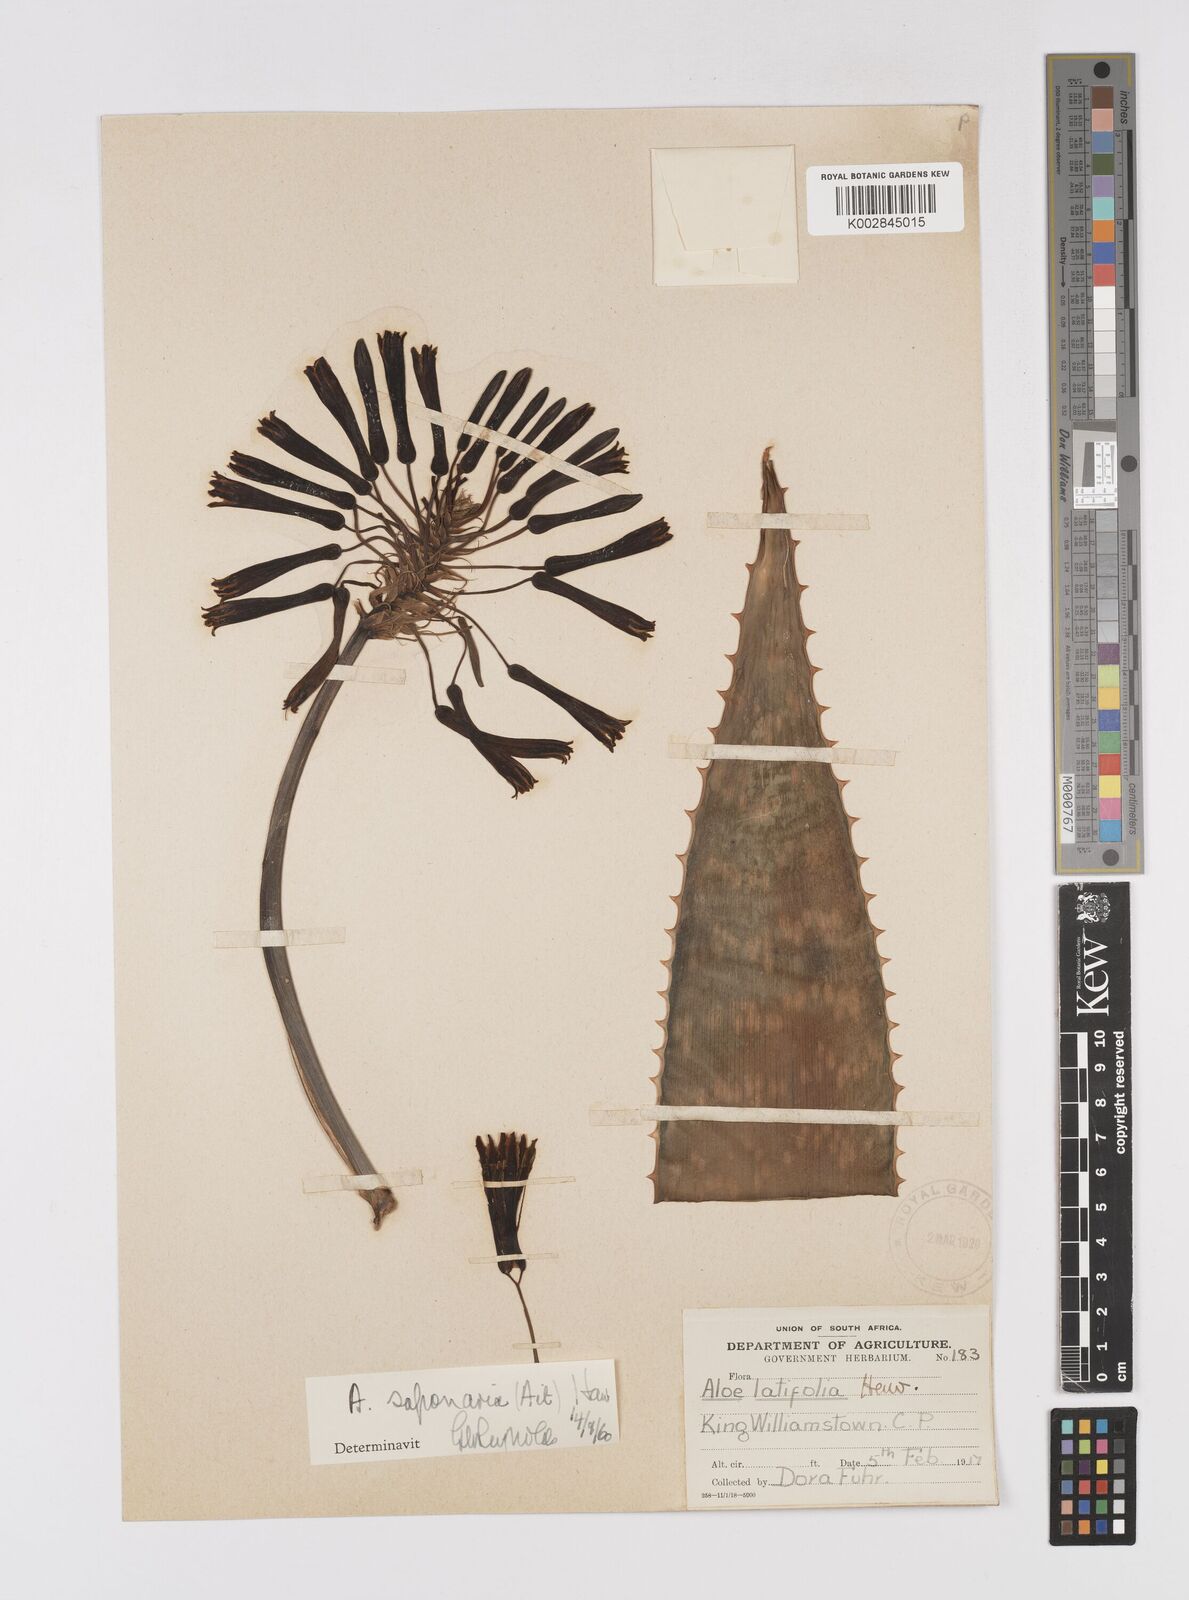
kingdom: Plantae
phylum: Tracheophyta
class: Liliopsida
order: Asparagales
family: Asphodelaceae
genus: Gasteria
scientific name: Gasteria obliqua
